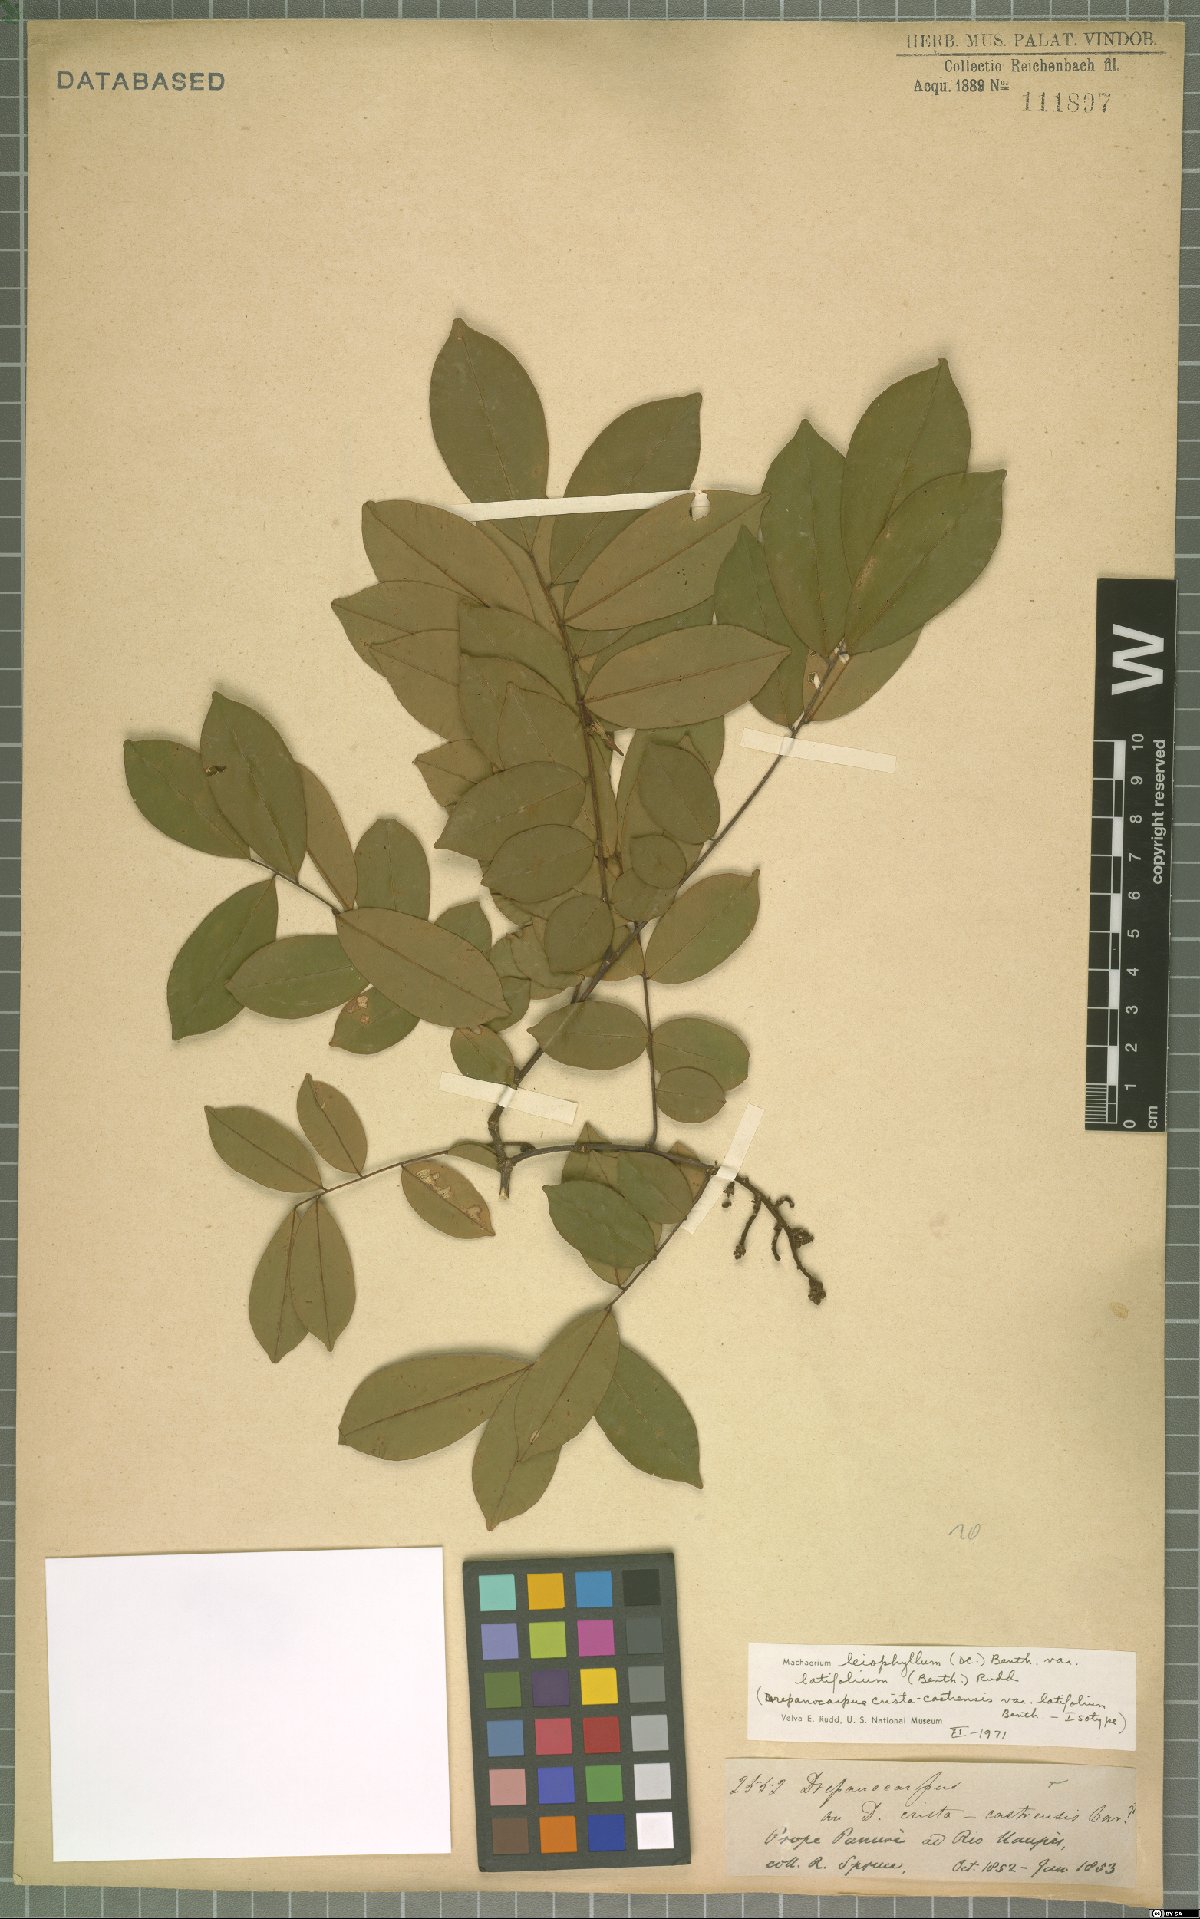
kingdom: Plantae
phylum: Tracheophyta
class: Magnoliopsida
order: Fabales
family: Fabaceae
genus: Machaerium
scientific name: Machaerium leiophyllum
